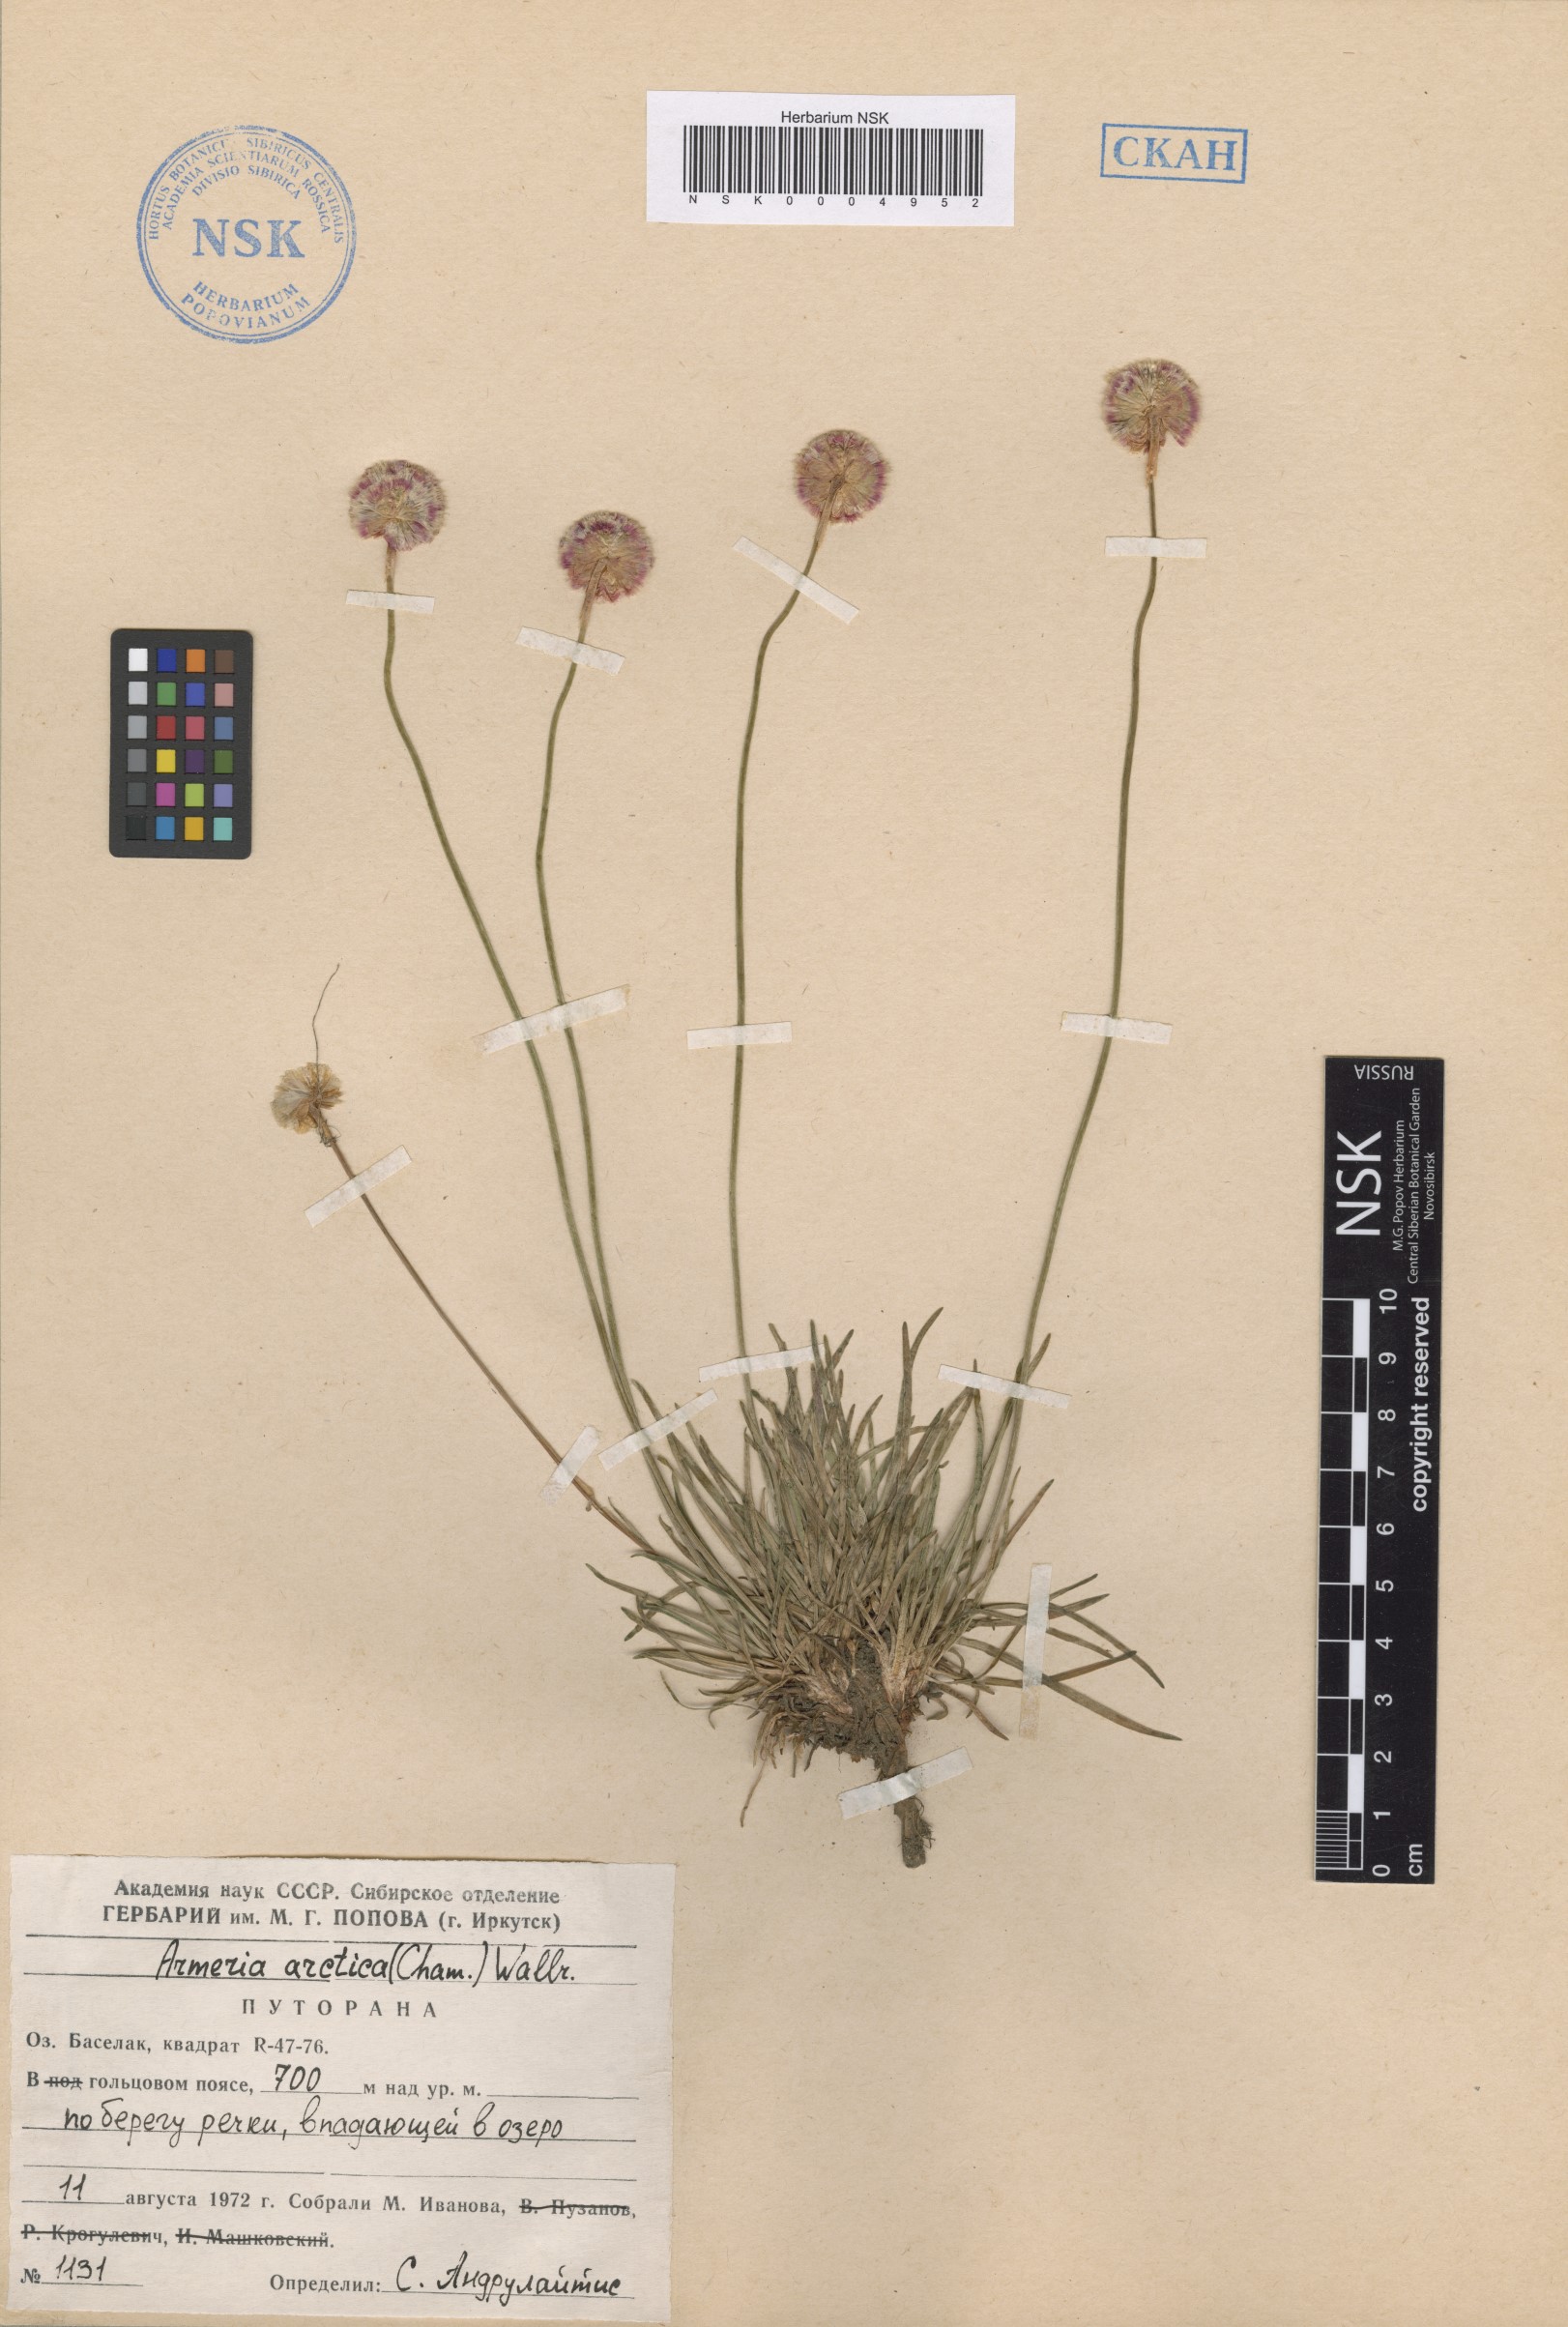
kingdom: Plantae
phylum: Tracheophyta
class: Magnoliopsida
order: Caryophyllales
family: Plumbaginaceae
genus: Armeria
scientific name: Armeria maritima
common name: Thrift
